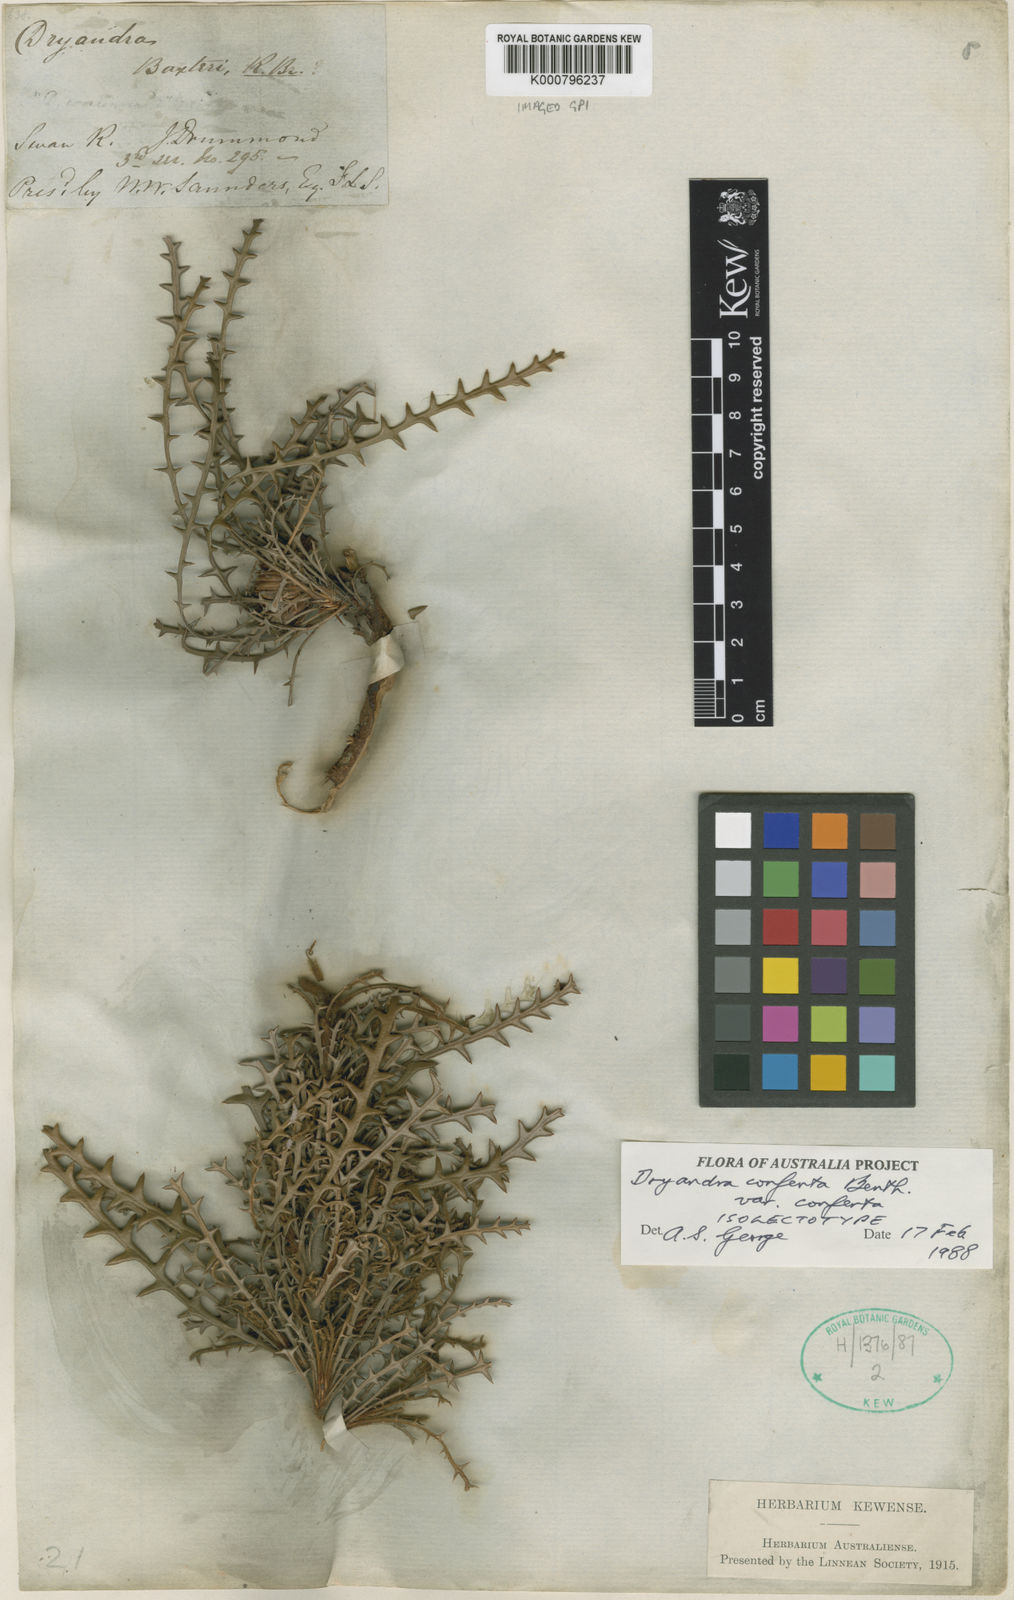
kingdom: Plantae
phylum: Tracheophyta
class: Magnoliopsida
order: Proteales
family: Proteaceae
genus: Banksia
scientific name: Banksia densa
